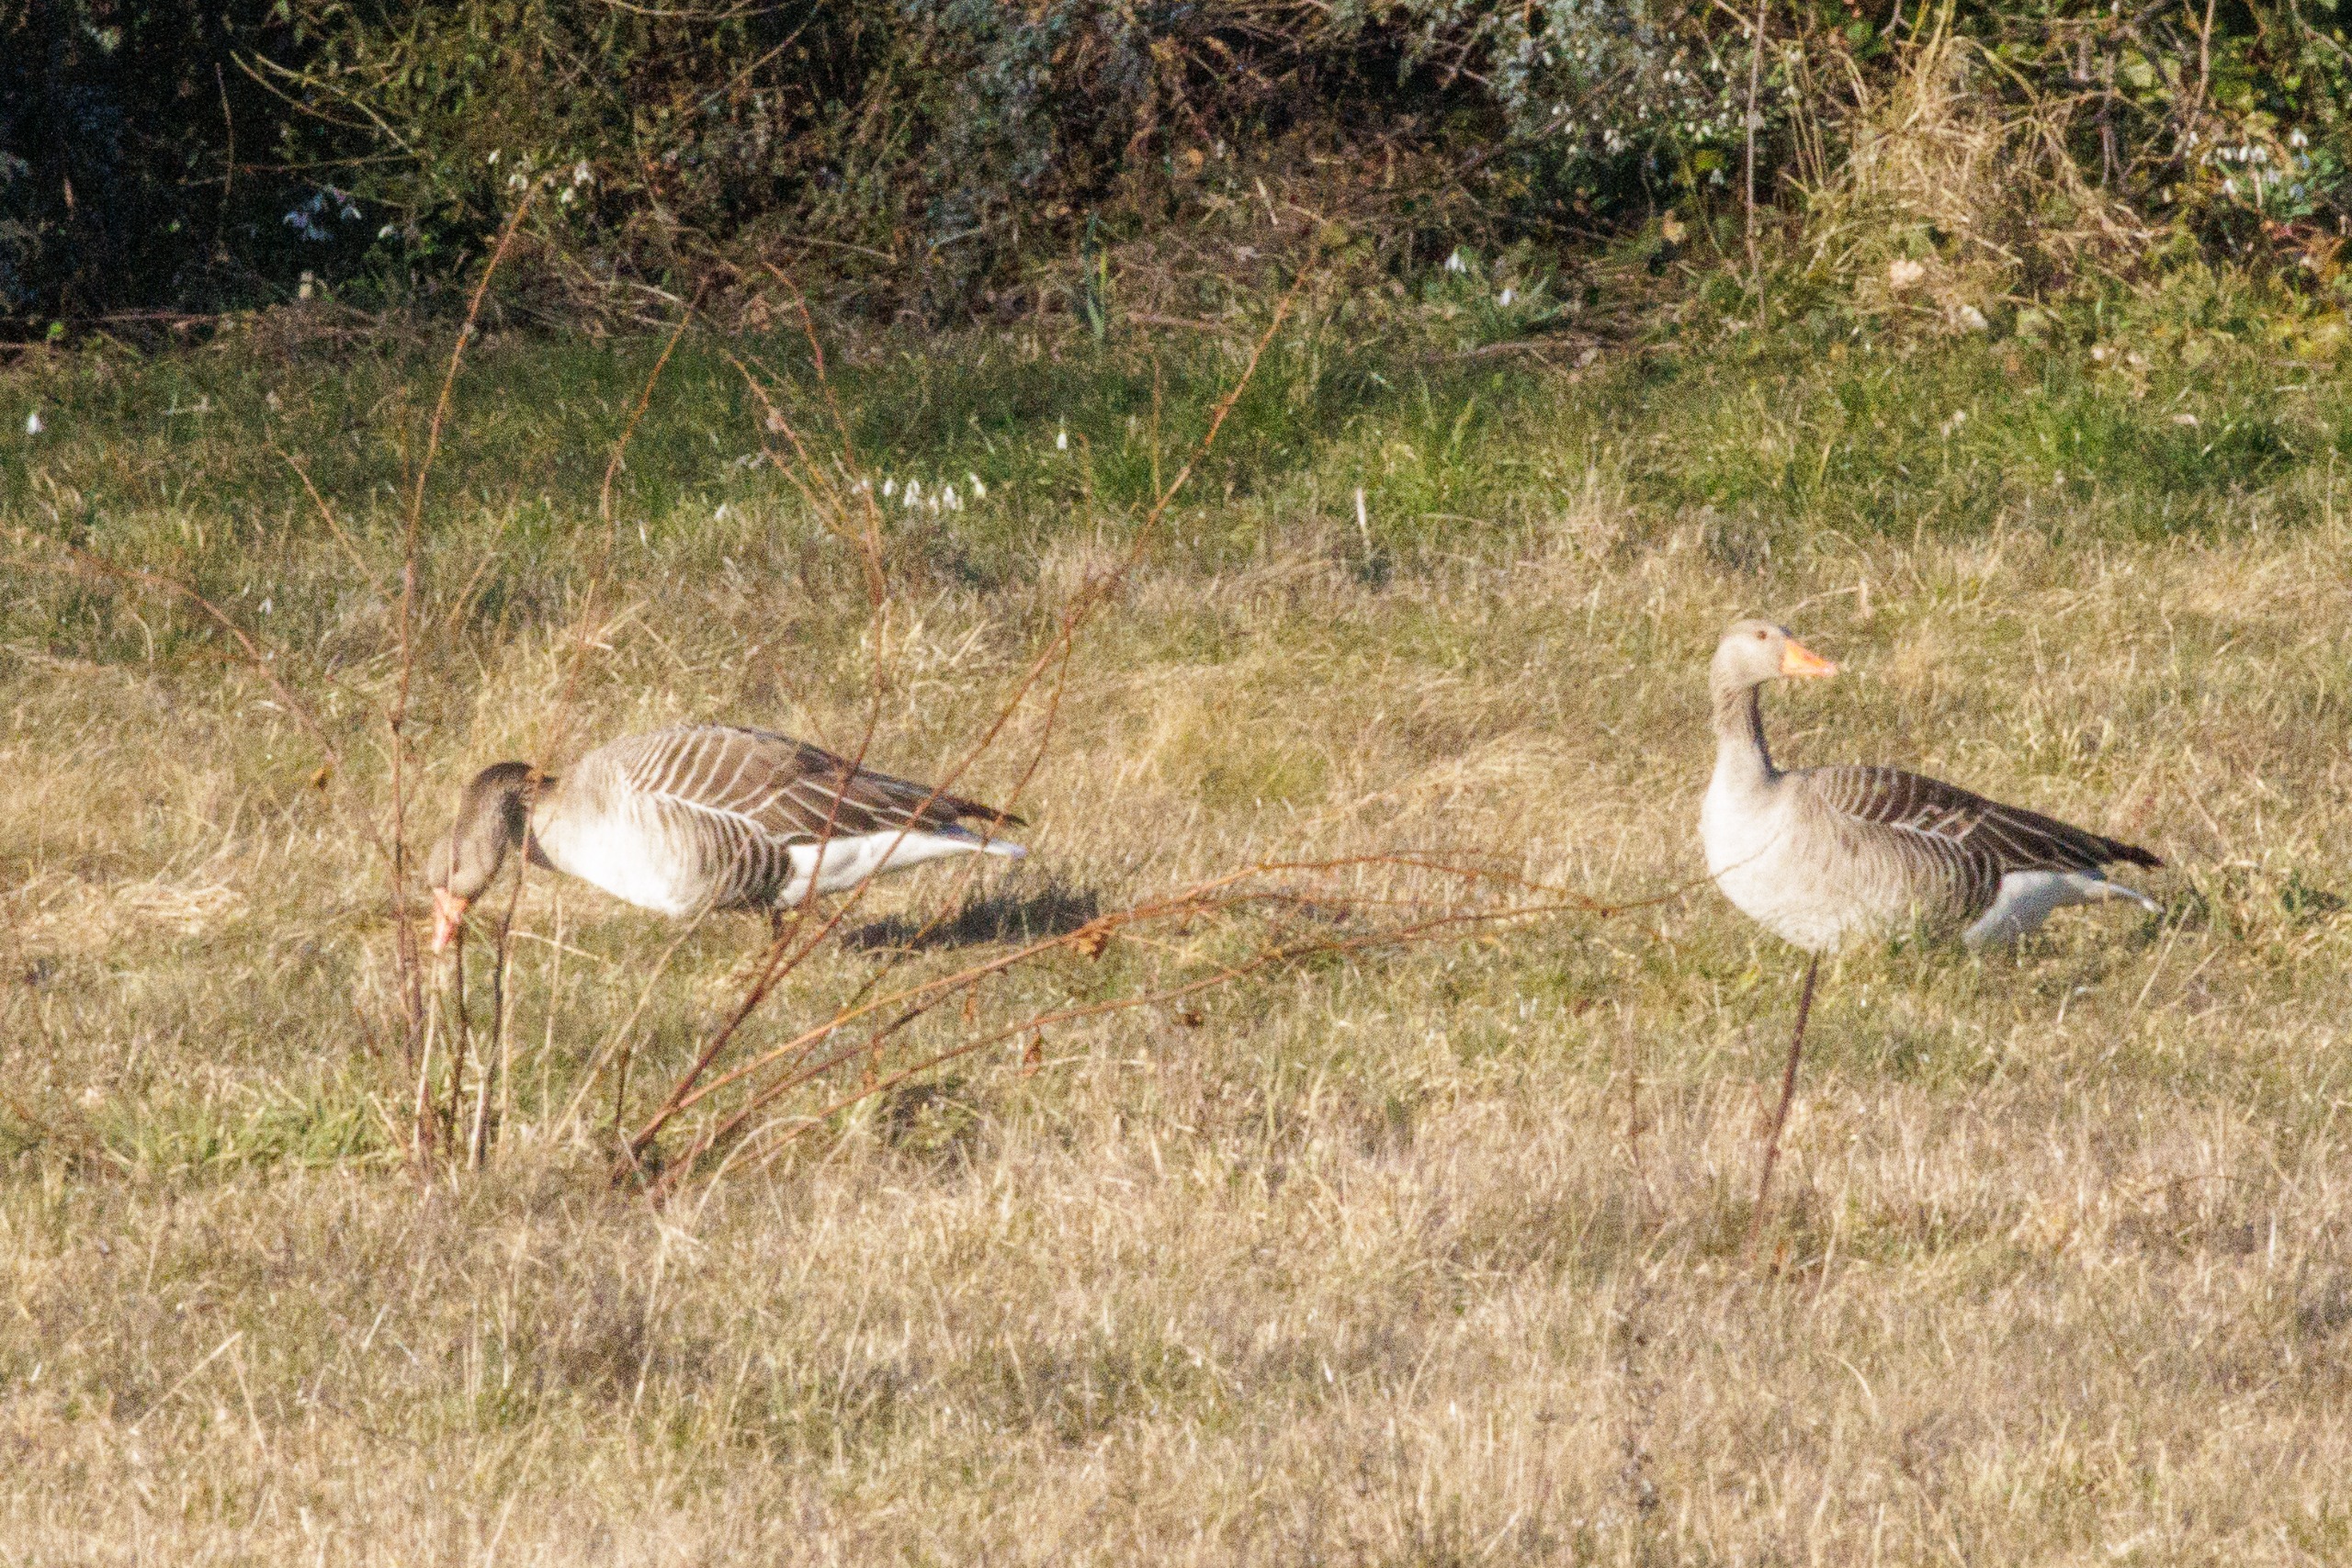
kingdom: Animalia
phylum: Chordata
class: Aves
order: Anseriformes
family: Anatidae
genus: Anser
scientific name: Anser anser
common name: Grågås
